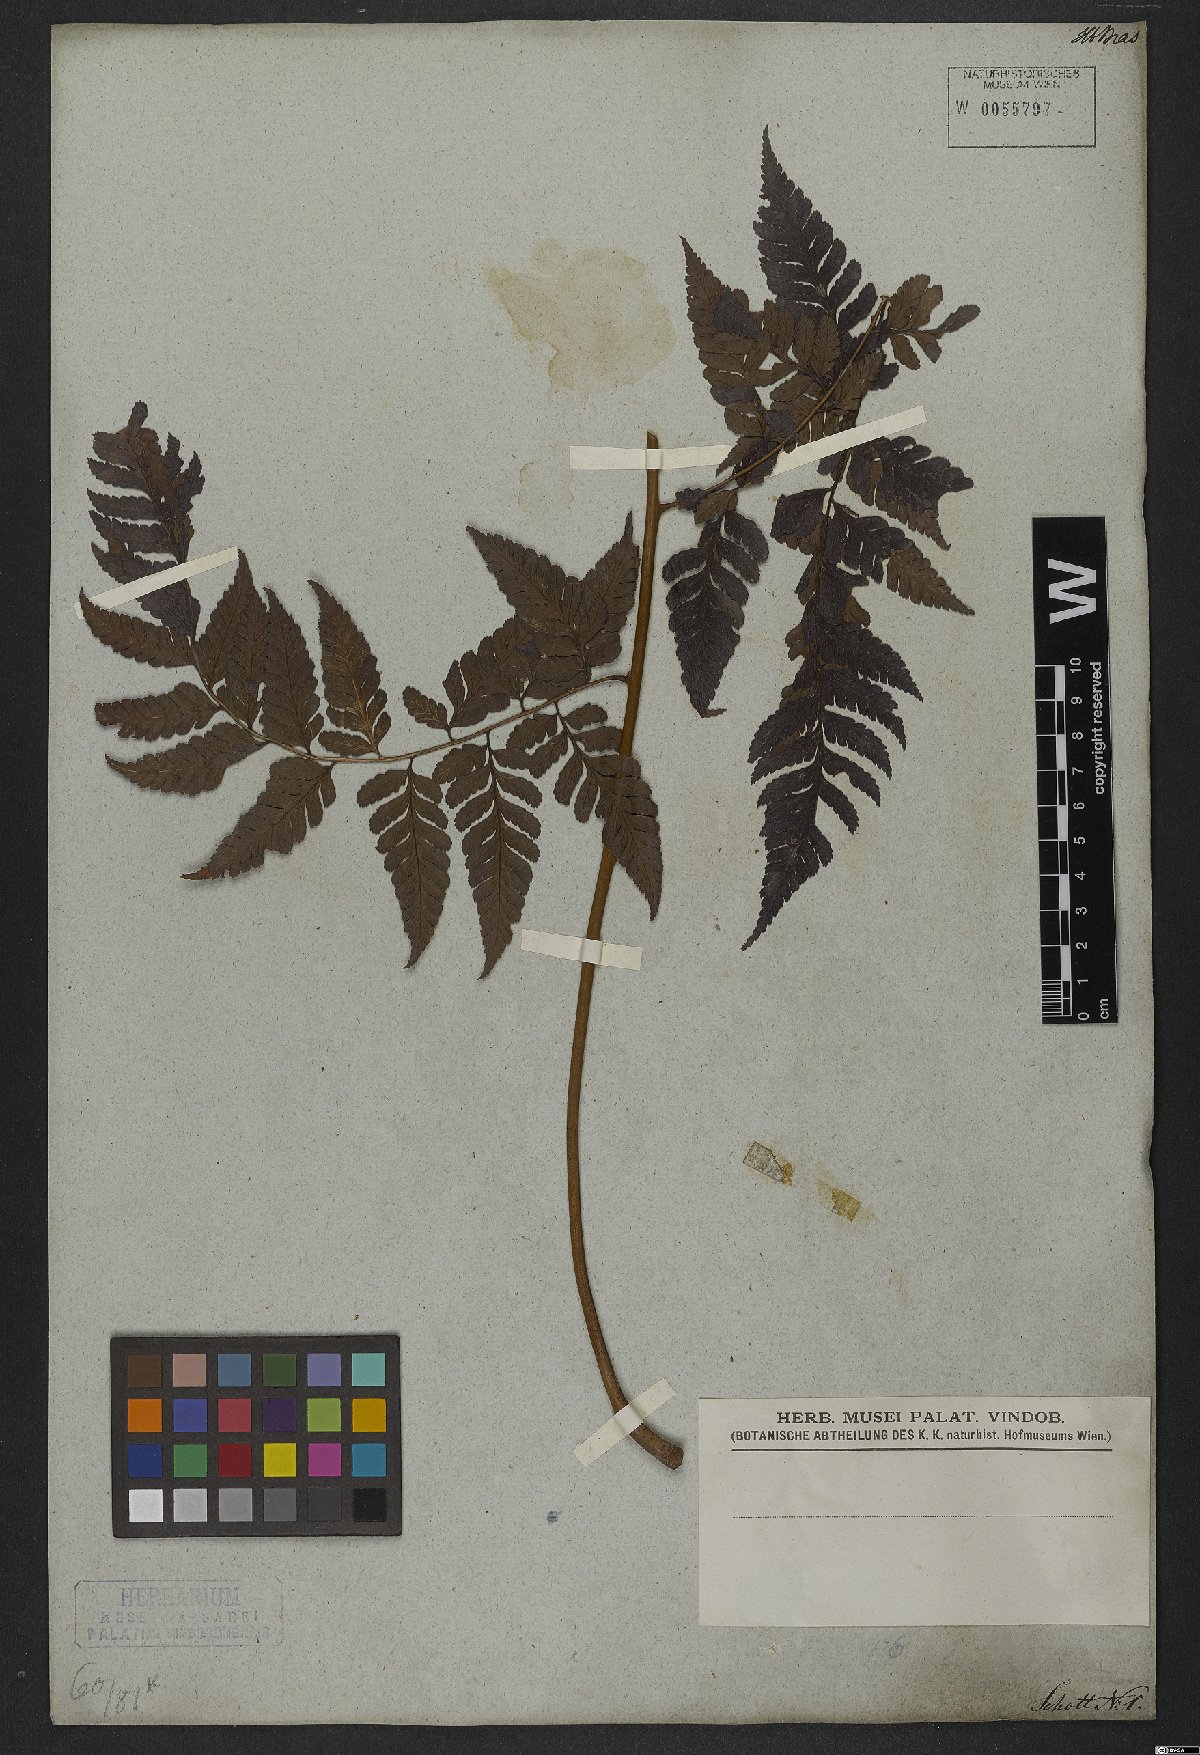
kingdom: Plantae
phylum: Tracheophyta
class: Polypodiopsida
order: Polypodiales
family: Dryopteridaceae
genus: Polybotrya
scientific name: Polybotrya osmundacea
